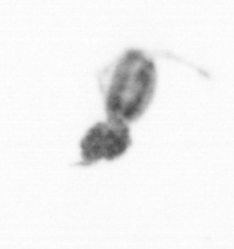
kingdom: Animalia
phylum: Arthropoda
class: Copepoda
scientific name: Copepoda
